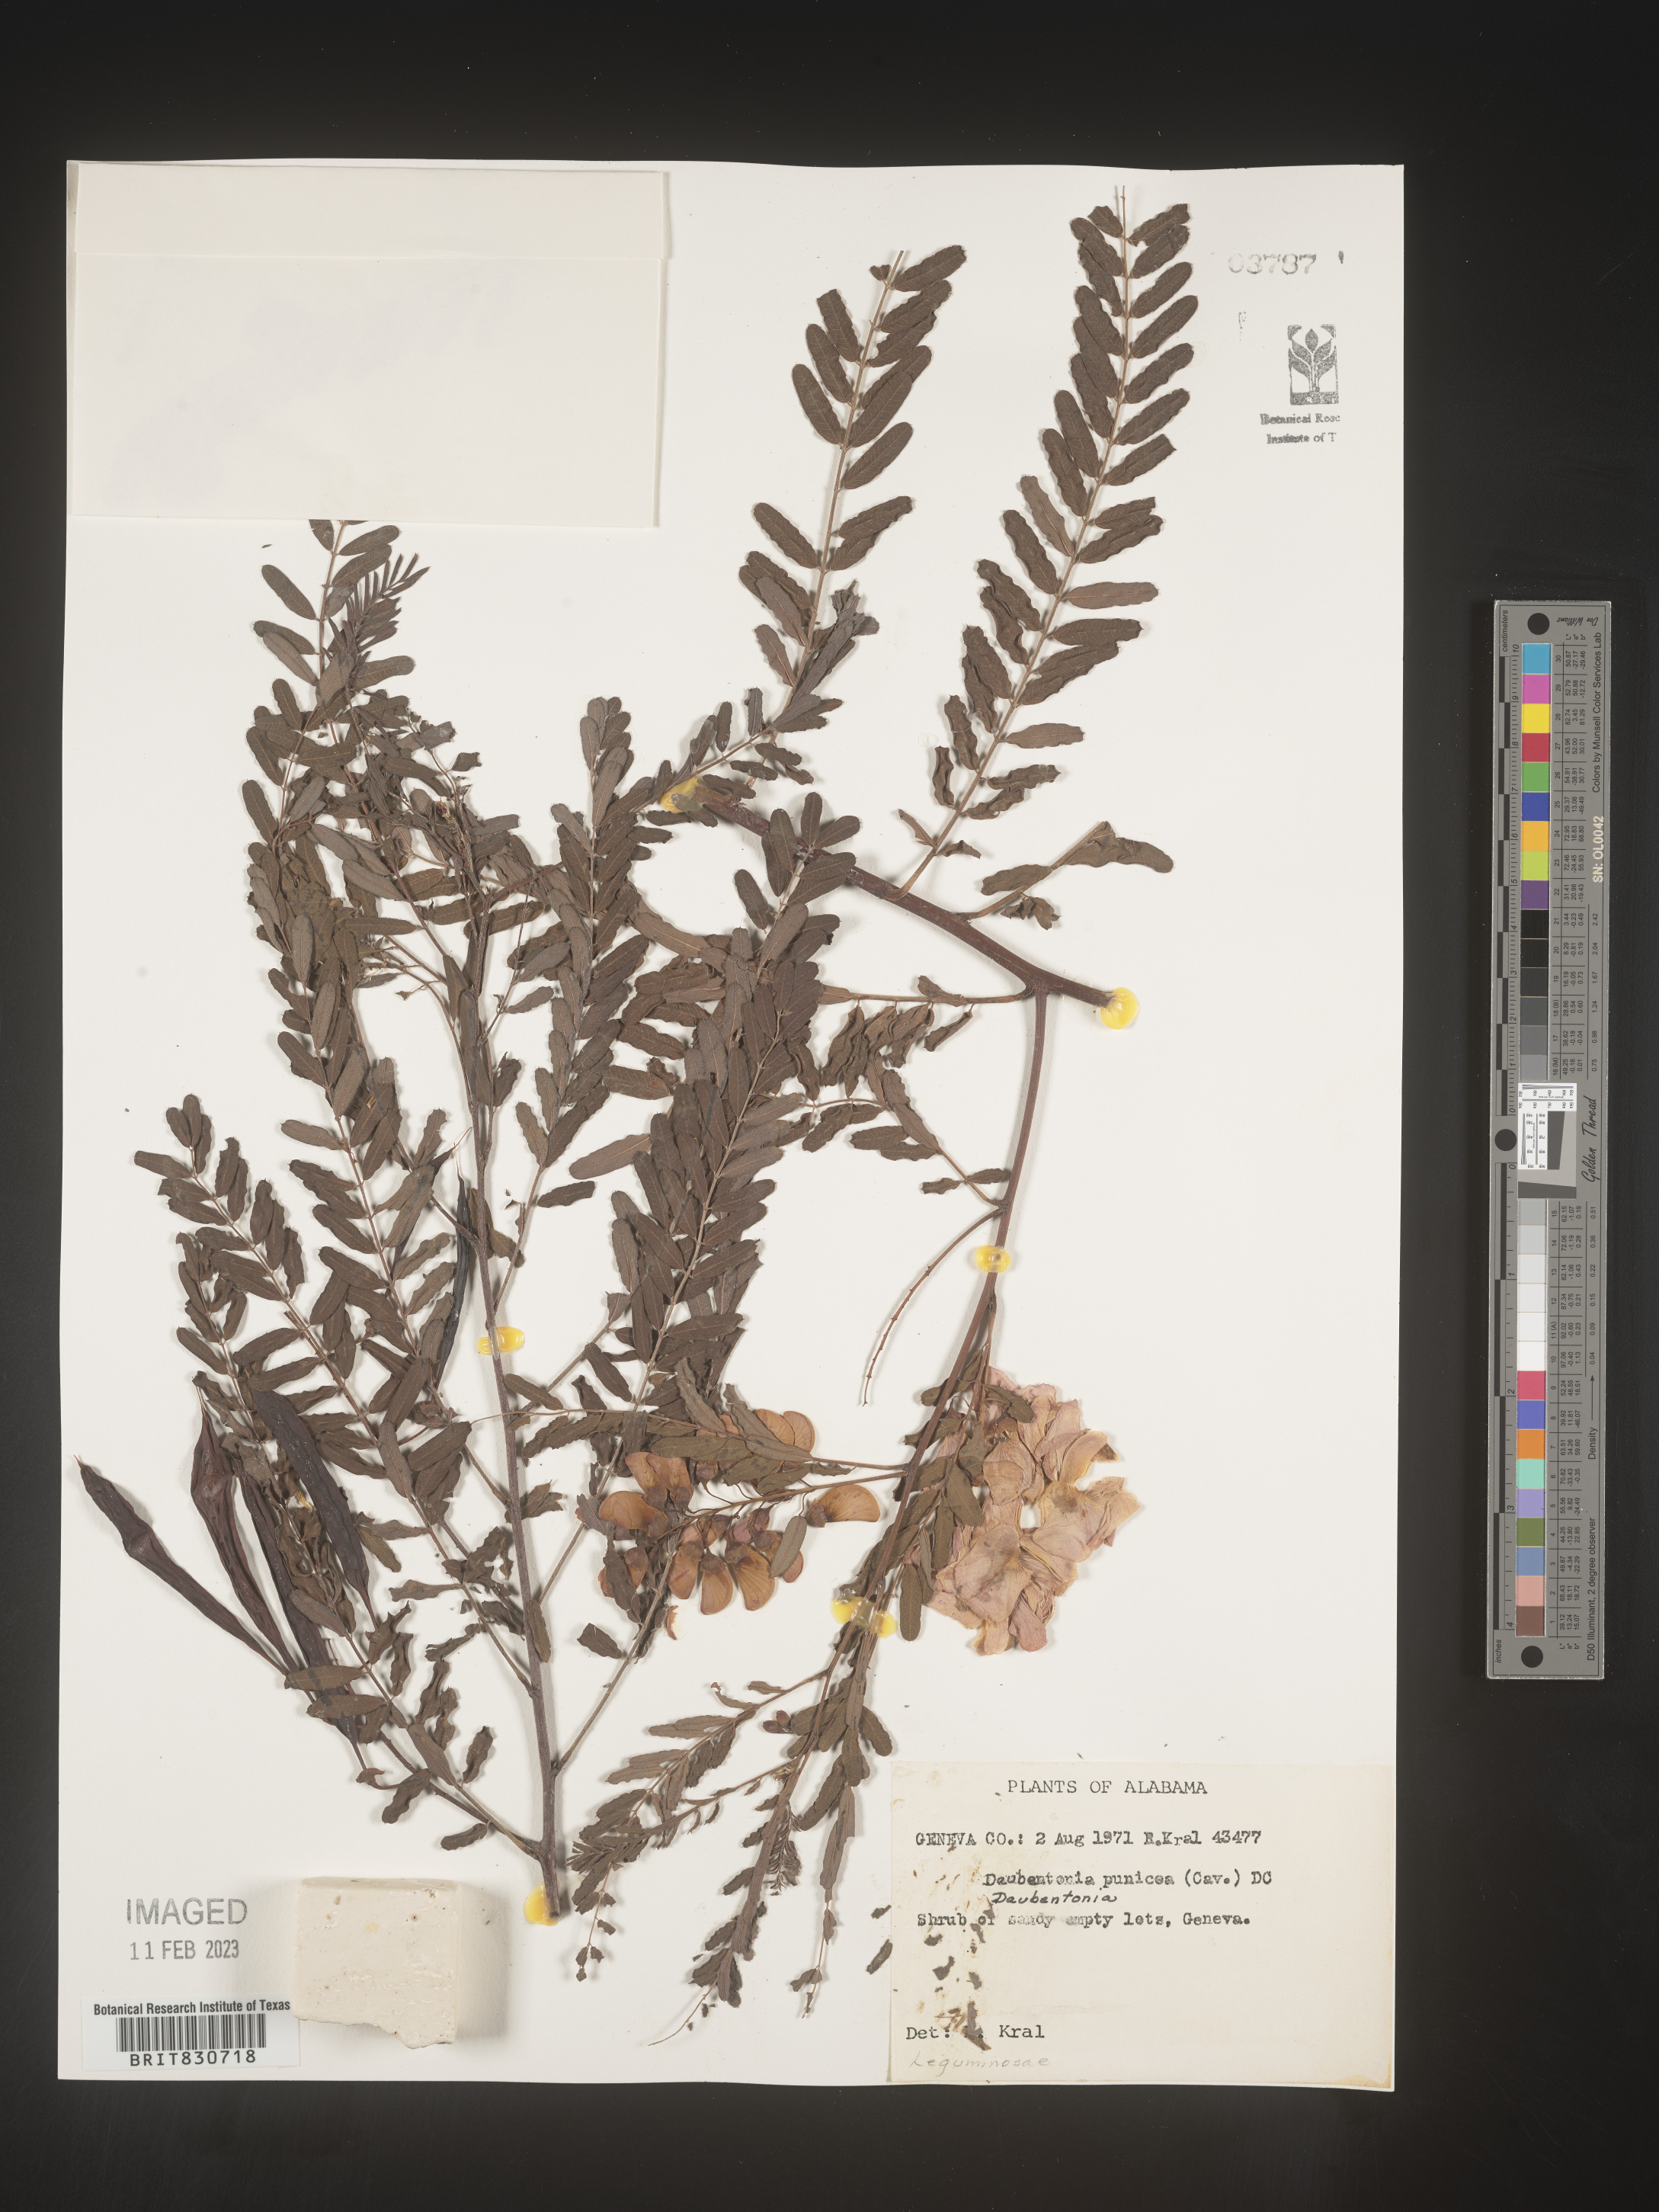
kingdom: Plantae
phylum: Tracheophyta
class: Magnoliopsida
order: Fabales
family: Fabaceae
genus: Sesbania
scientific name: Sesbania punicea
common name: Rattlebox
